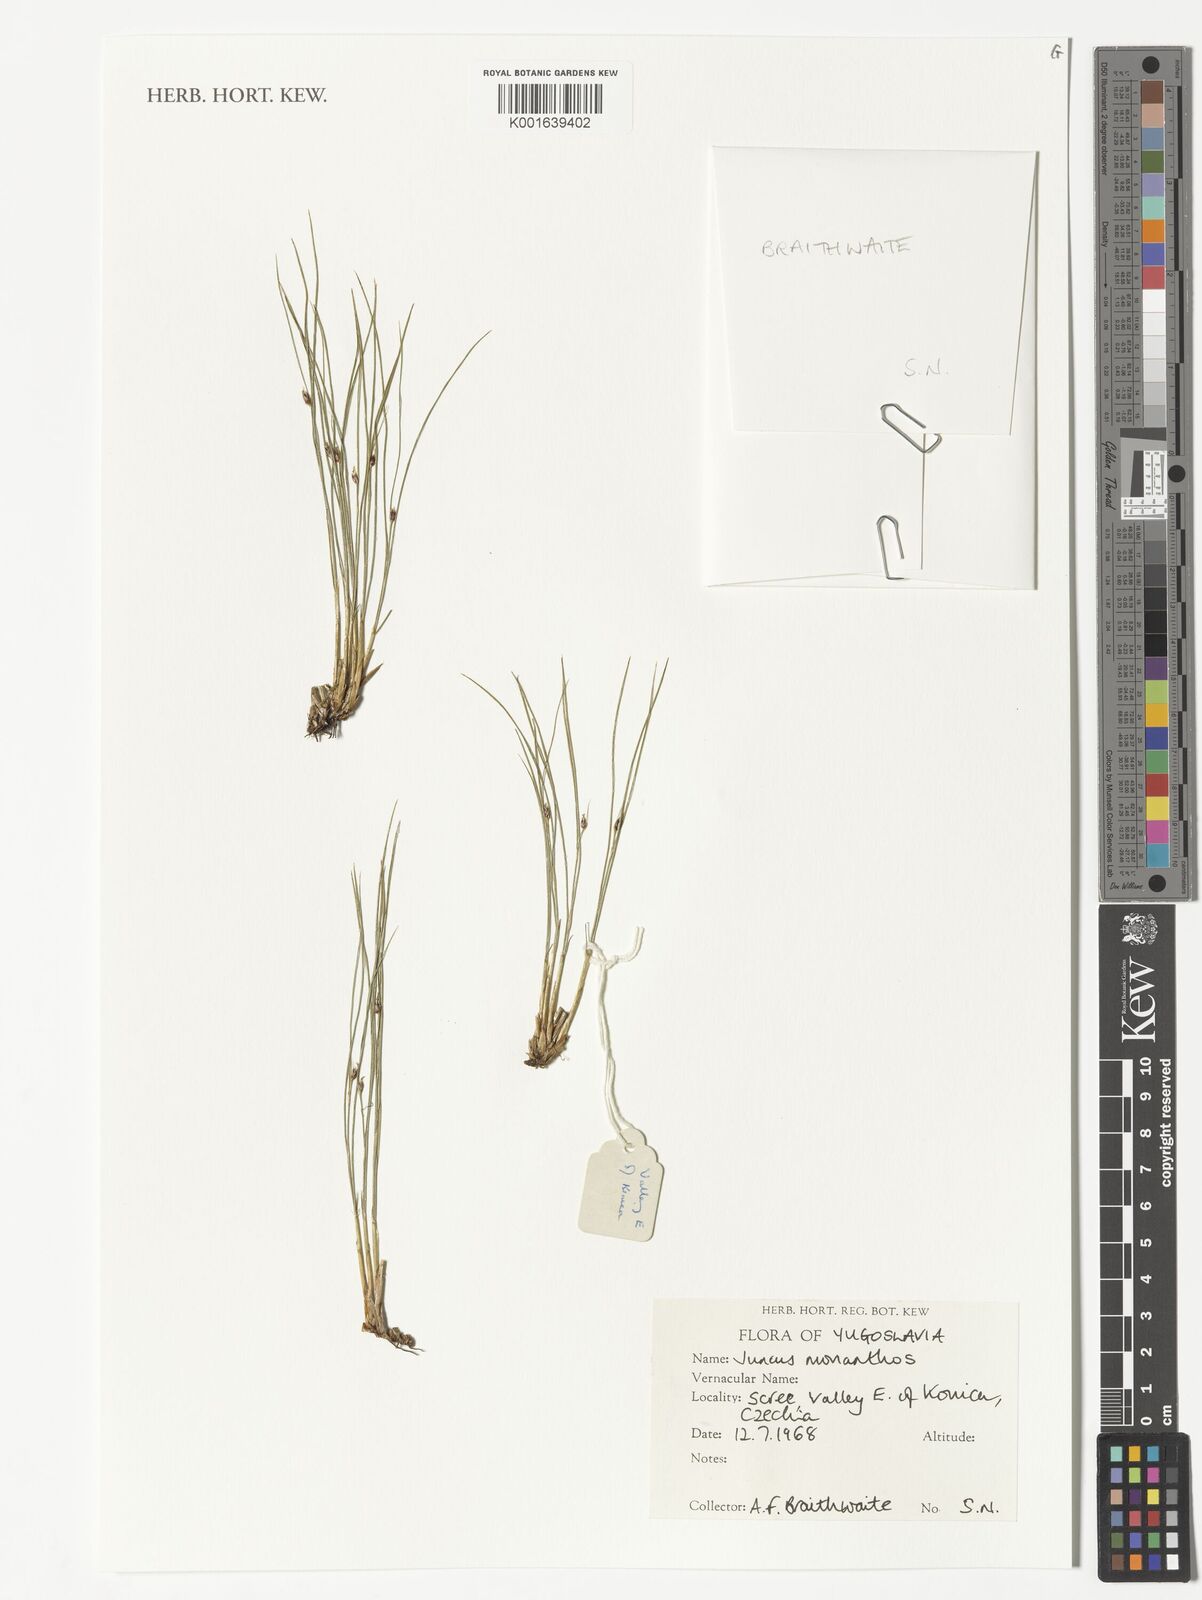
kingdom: Plantae
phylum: Tracheophyta
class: Liliopsida
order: Poales
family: Juncaceae
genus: Oreojuncus
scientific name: Oreojuncus monanthos
